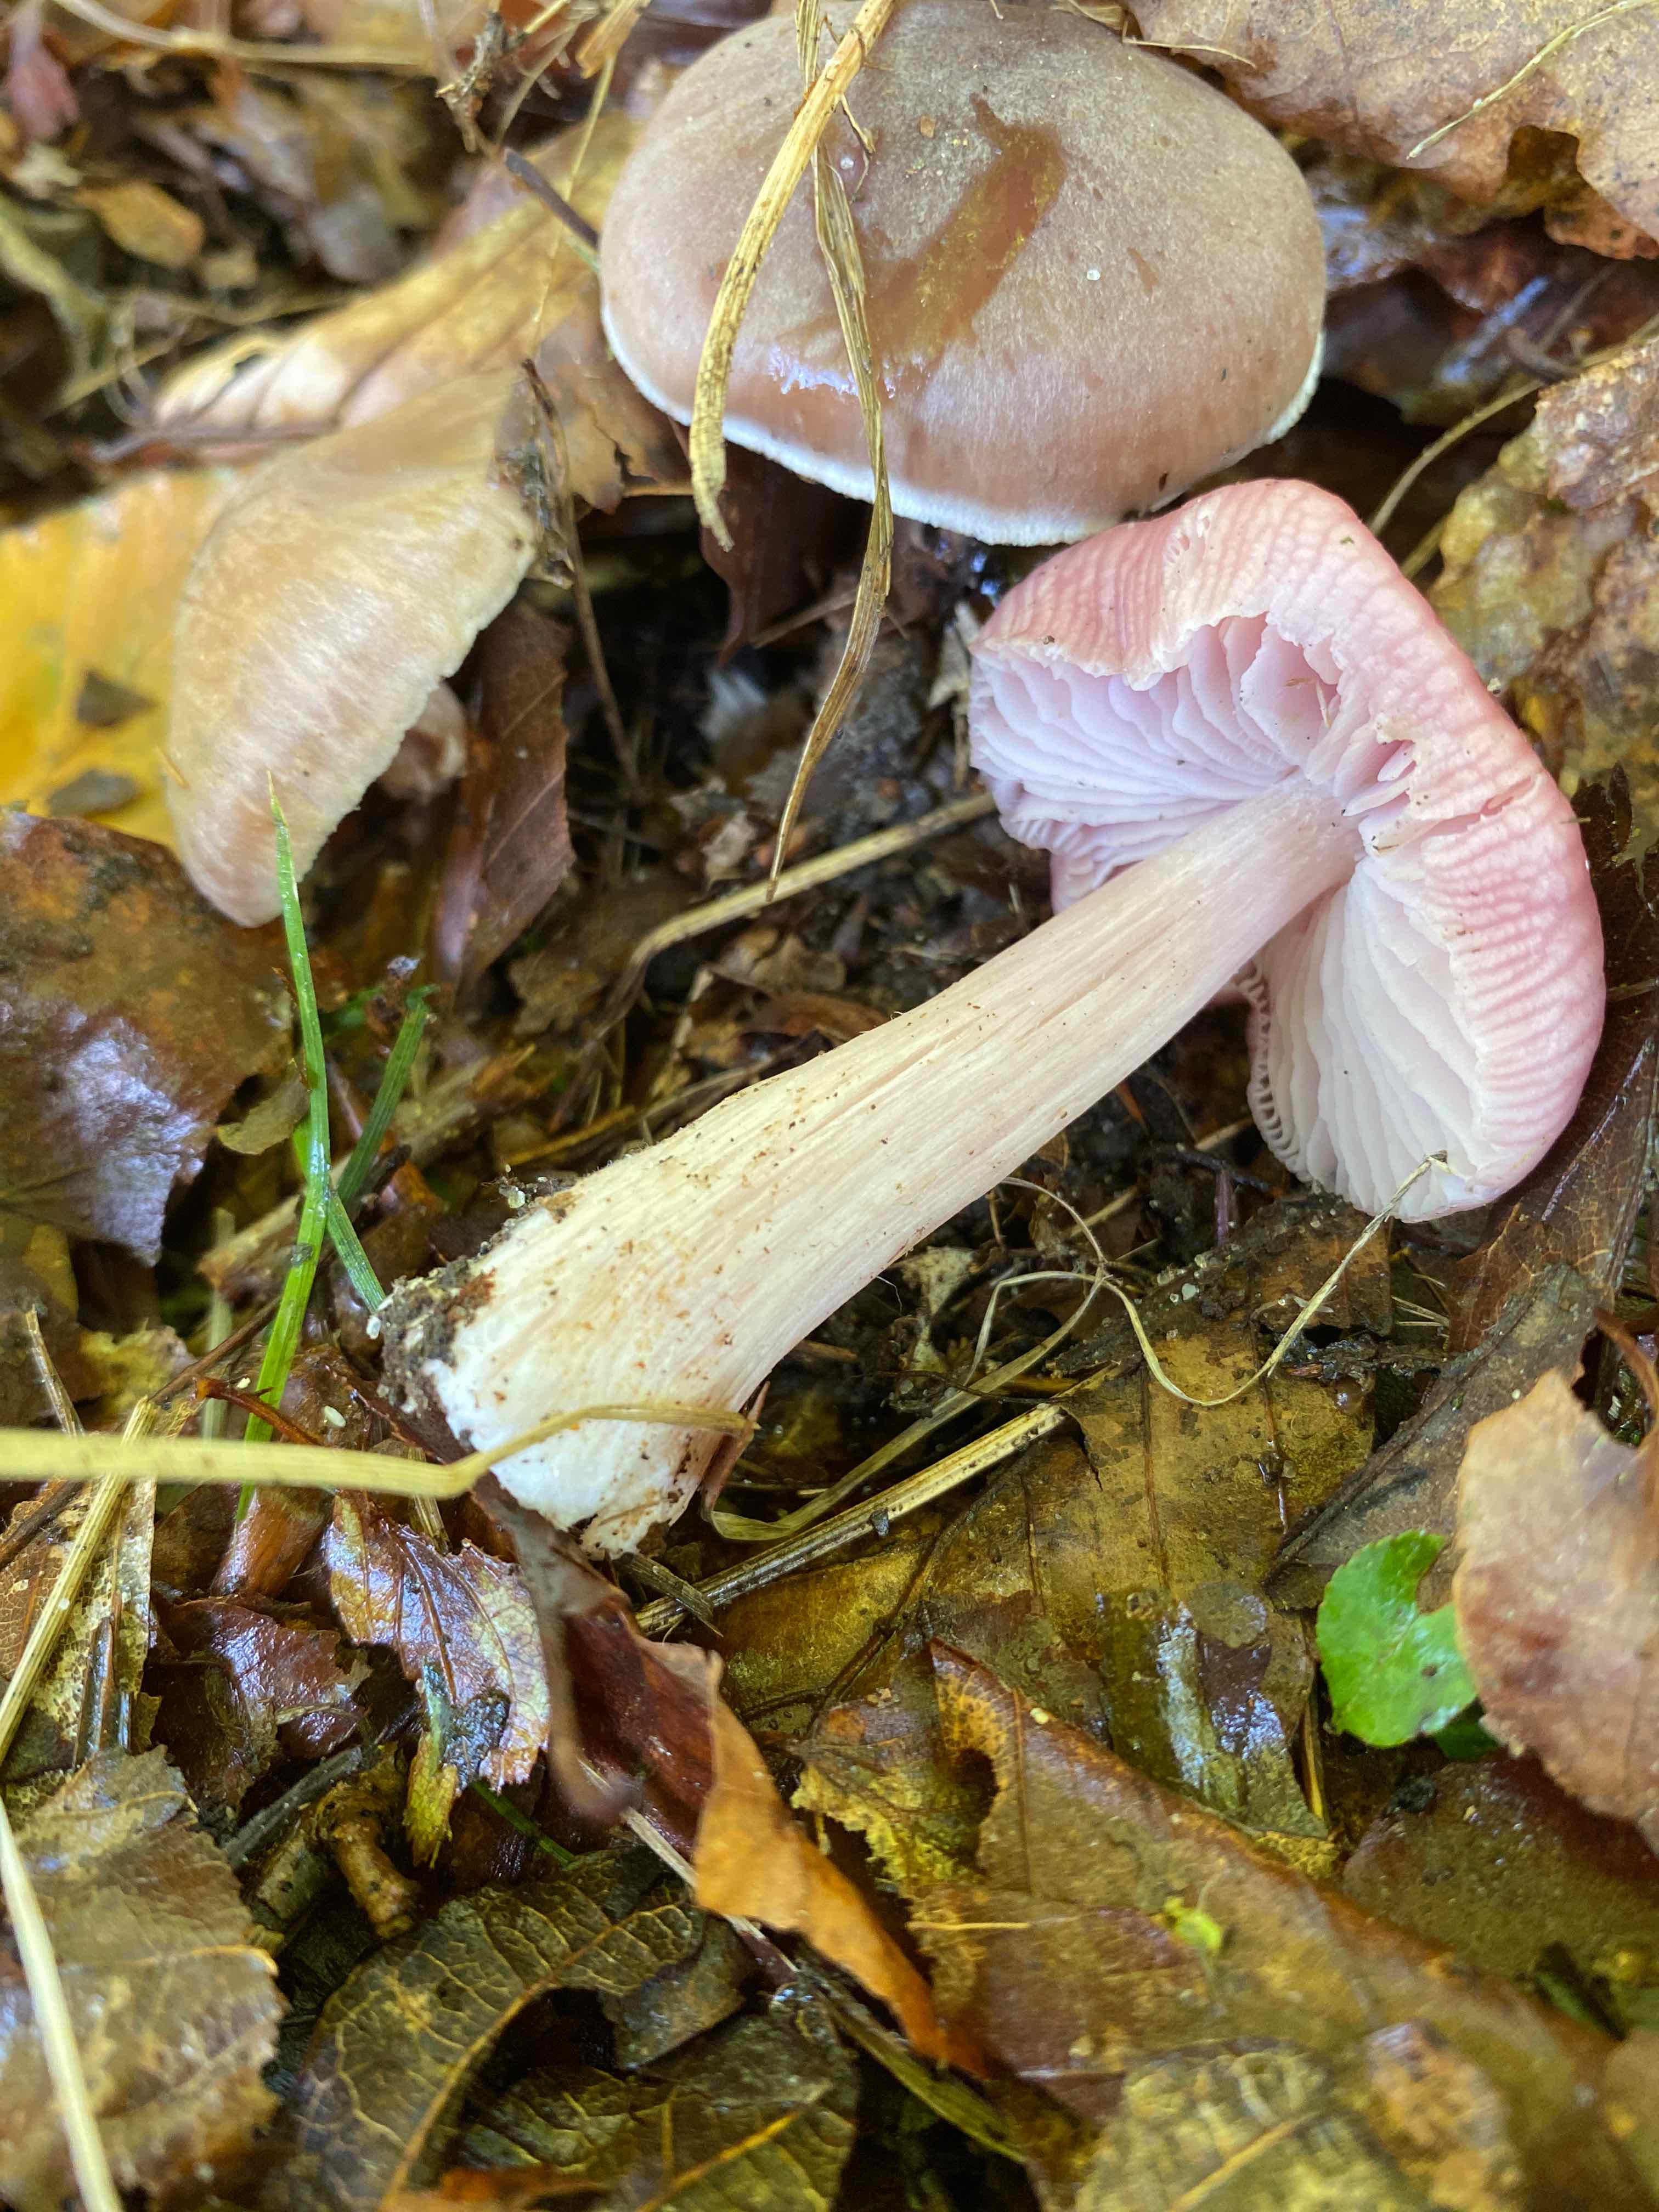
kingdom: Fungi
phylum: Basidiomycota
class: Agaricomycetes
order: Agaricales
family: Mycenaceae
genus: Mycena
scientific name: Mycena rosea
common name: rosa huesvamp
